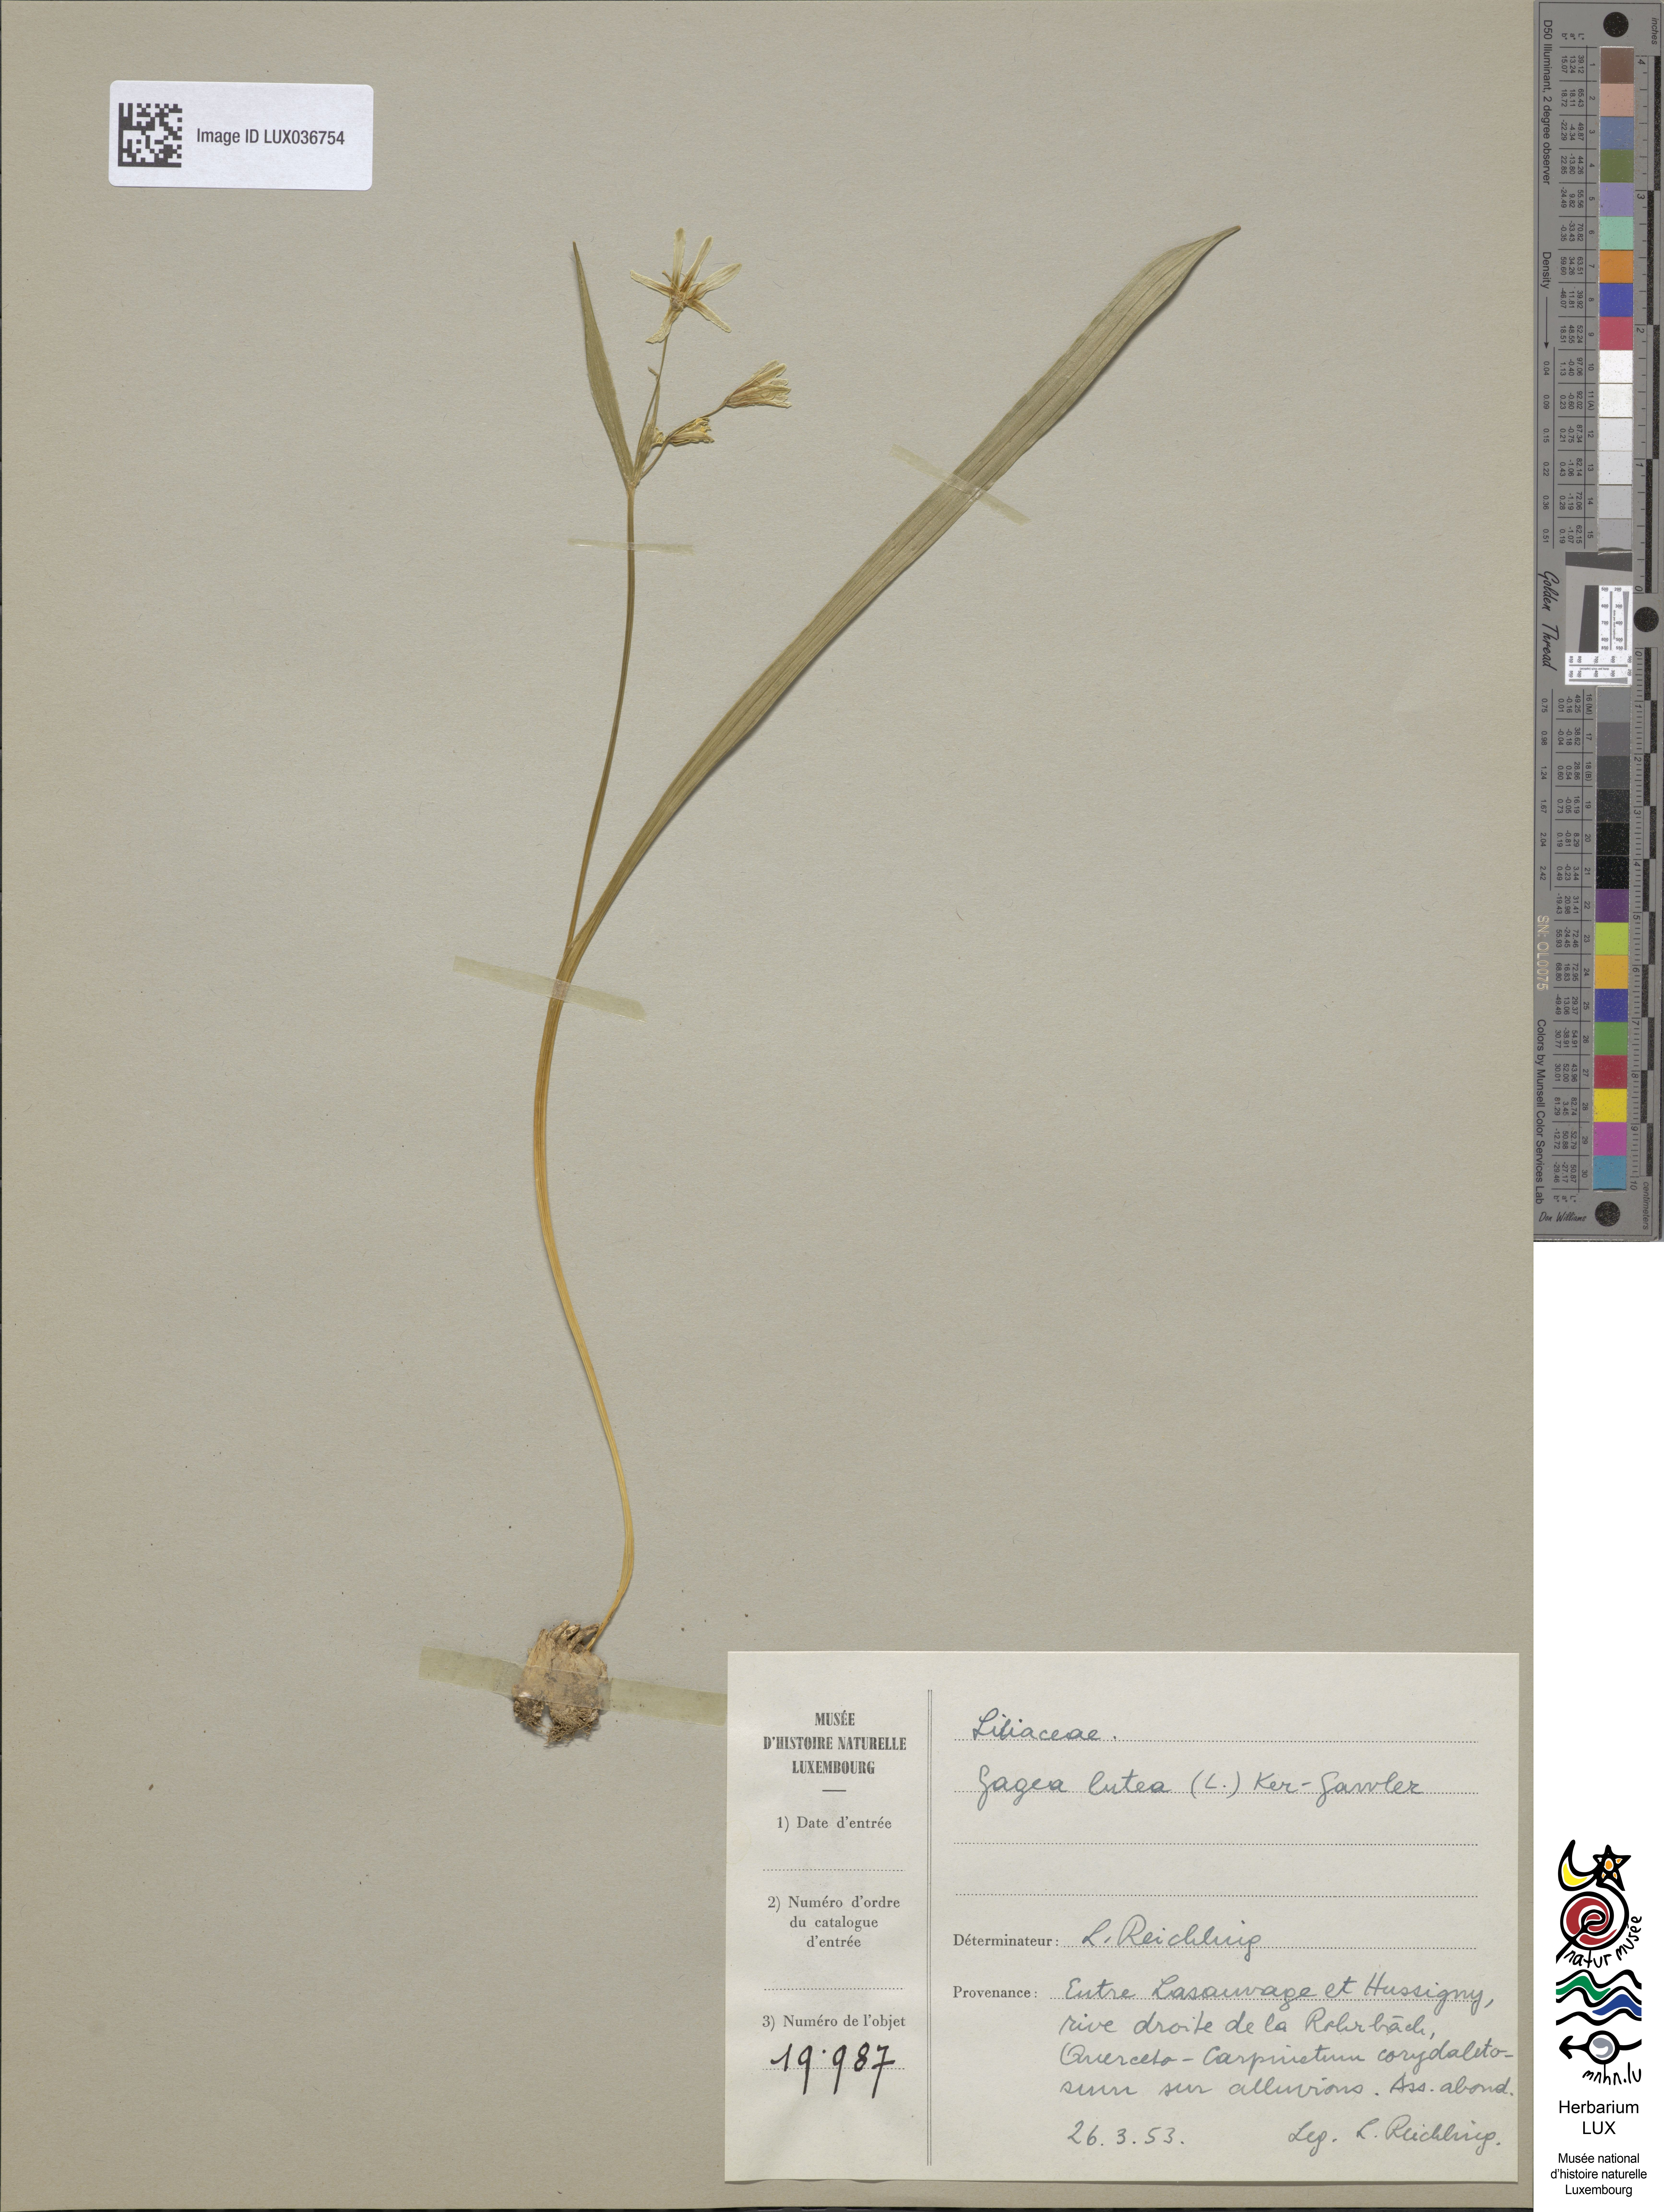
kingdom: Plantae
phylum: Tracheophyta
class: Liliopsida
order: Liliales
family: Liliaceae
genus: Gagea
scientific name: Gagea lutea
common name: Yellow star-of-bethlehem
